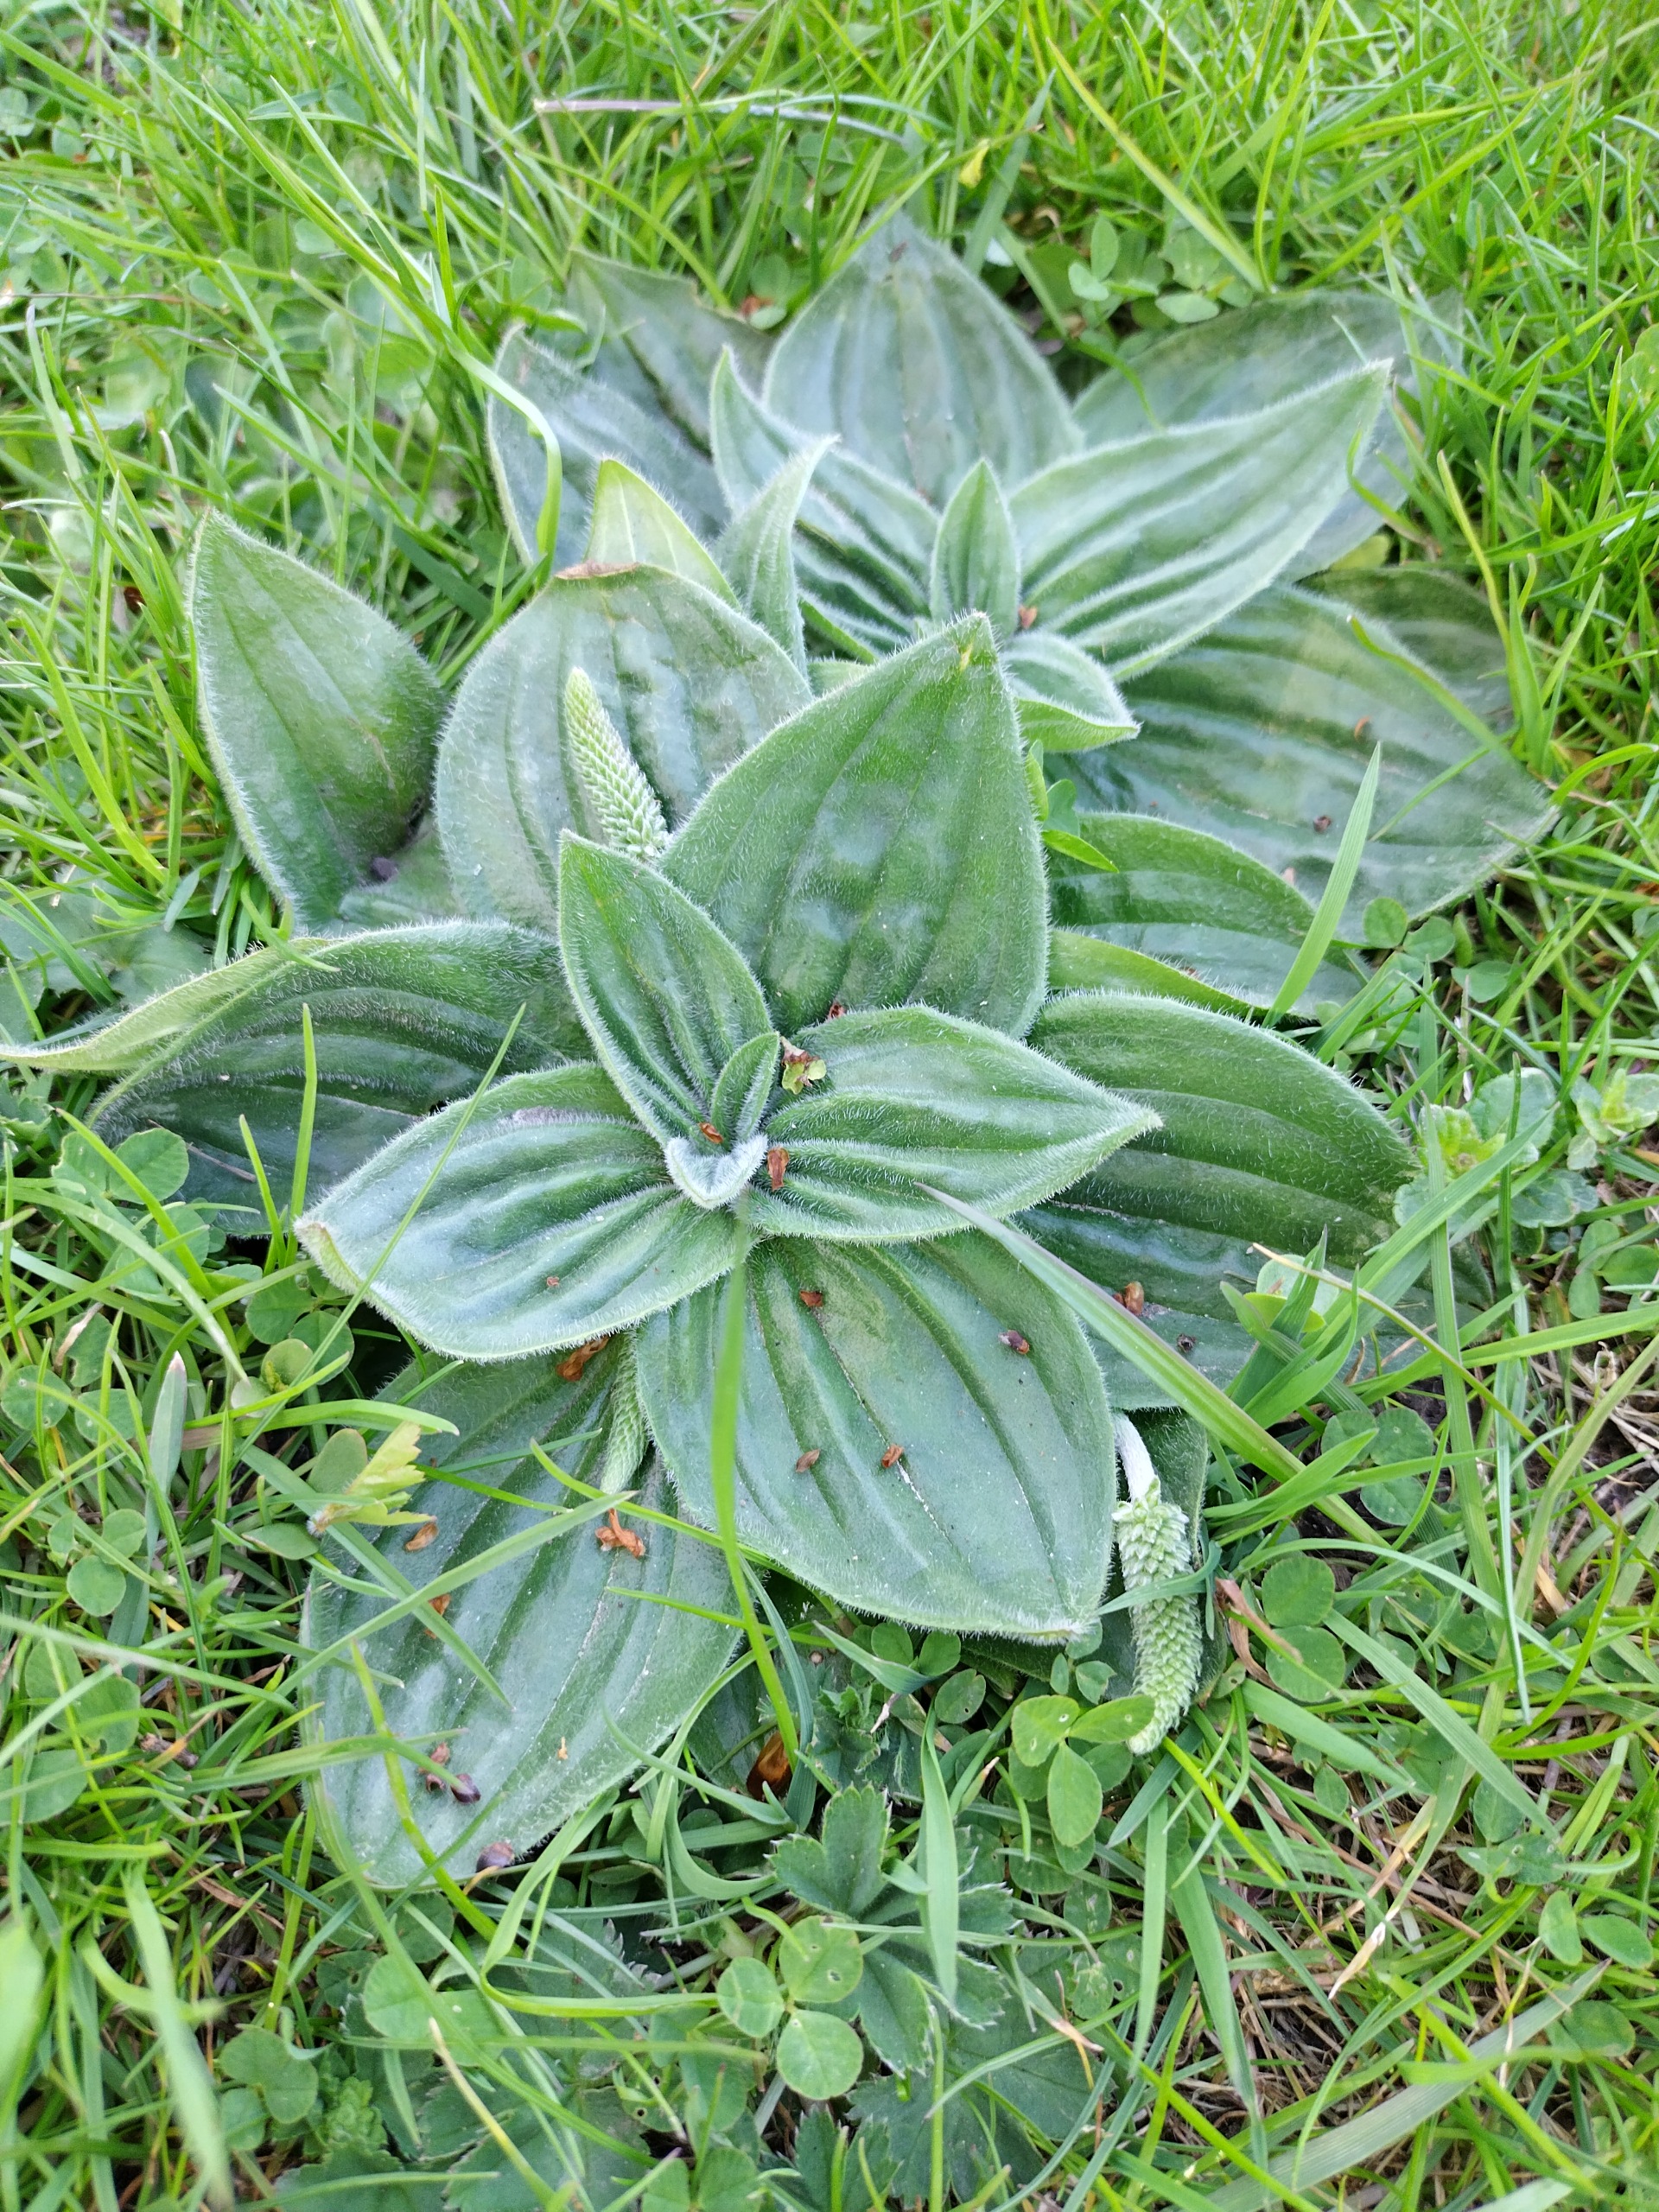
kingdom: Plantae
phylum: Tracheophyta
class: Magnoliopsida
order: Lamiales
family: Plantaginaceae
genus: Plantago
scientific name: Plantago media
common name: Dunet vejbred
